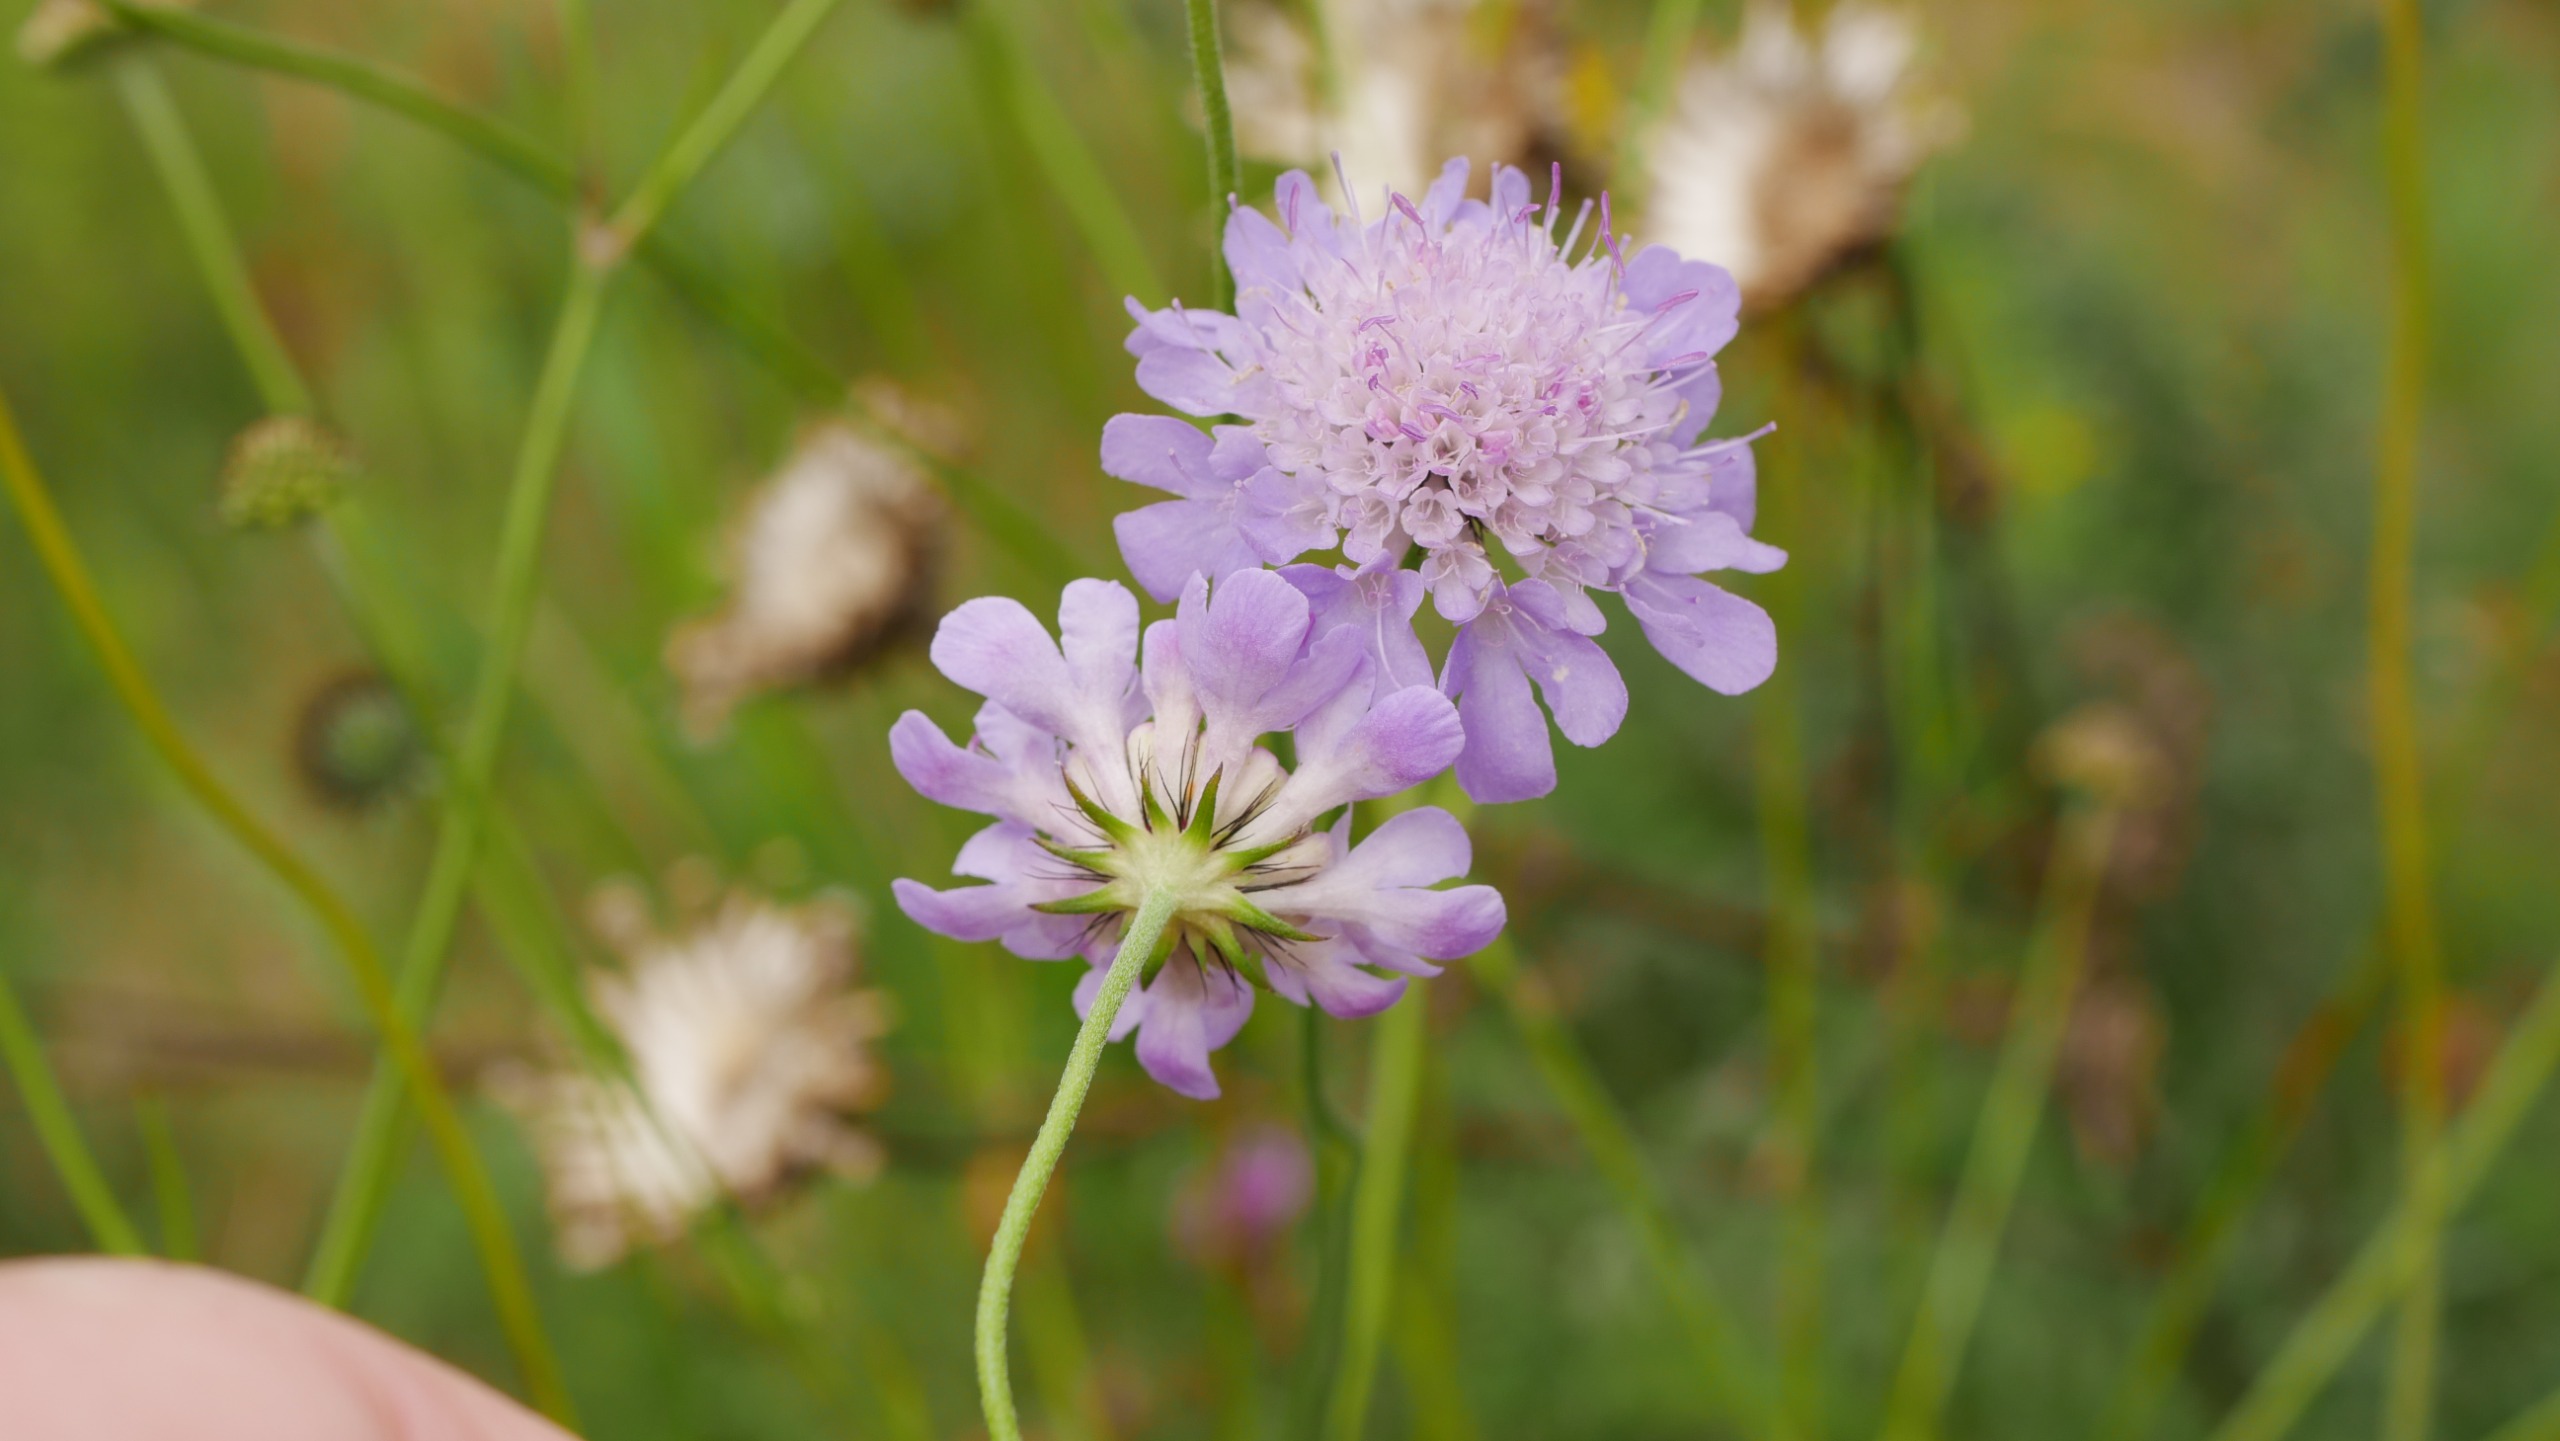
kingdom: Plantae
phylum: Tracheophyta
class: Magnoliopsida
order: Dipsacales
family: Caprifoliaceae
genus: Scabiosa
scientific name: Scabiosa columbaria
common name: Due-skabiose
